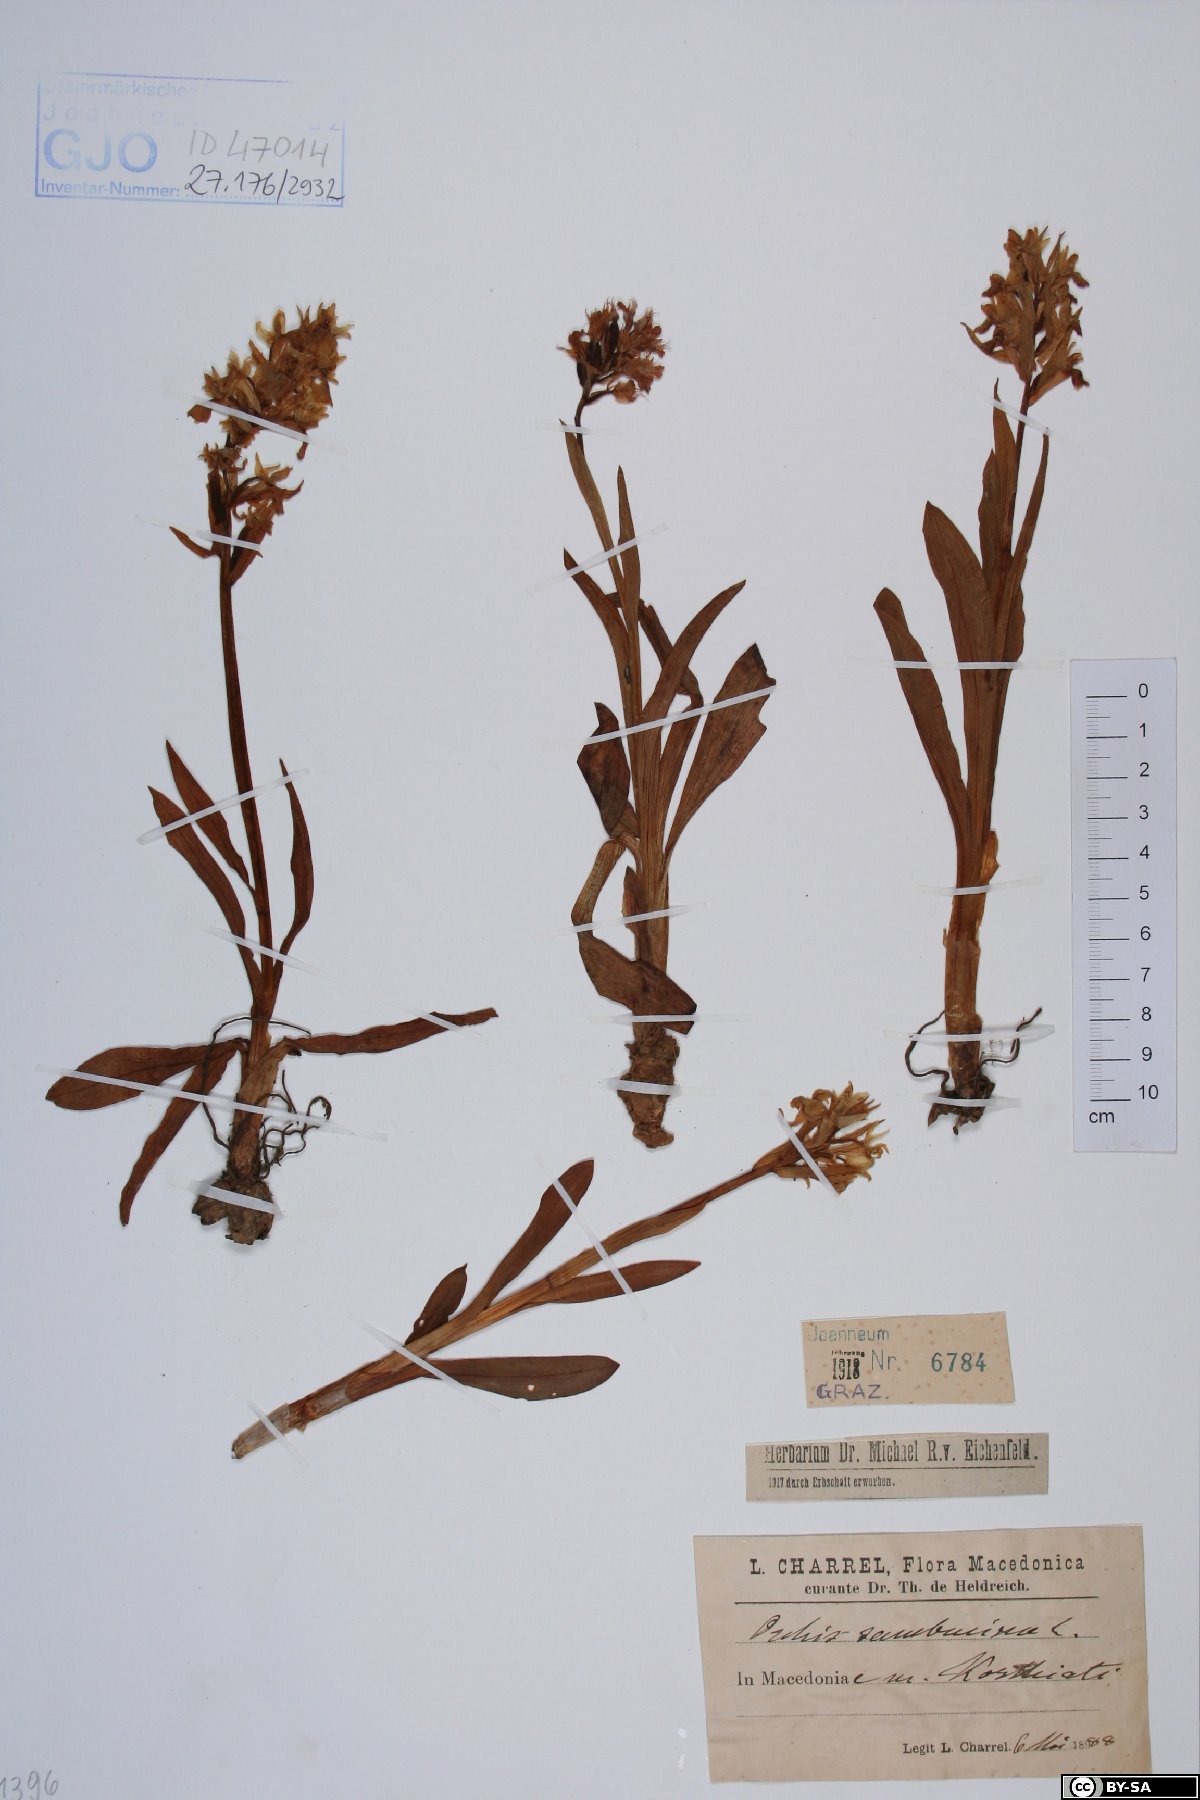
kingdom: Plantae
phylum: Tracheophyta
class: Liliopsida
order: Asparagales
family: Orchidaceae
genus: Dactylorhiza
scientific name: Dactylorhiza sambucina
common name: Elder-flowered orchid
